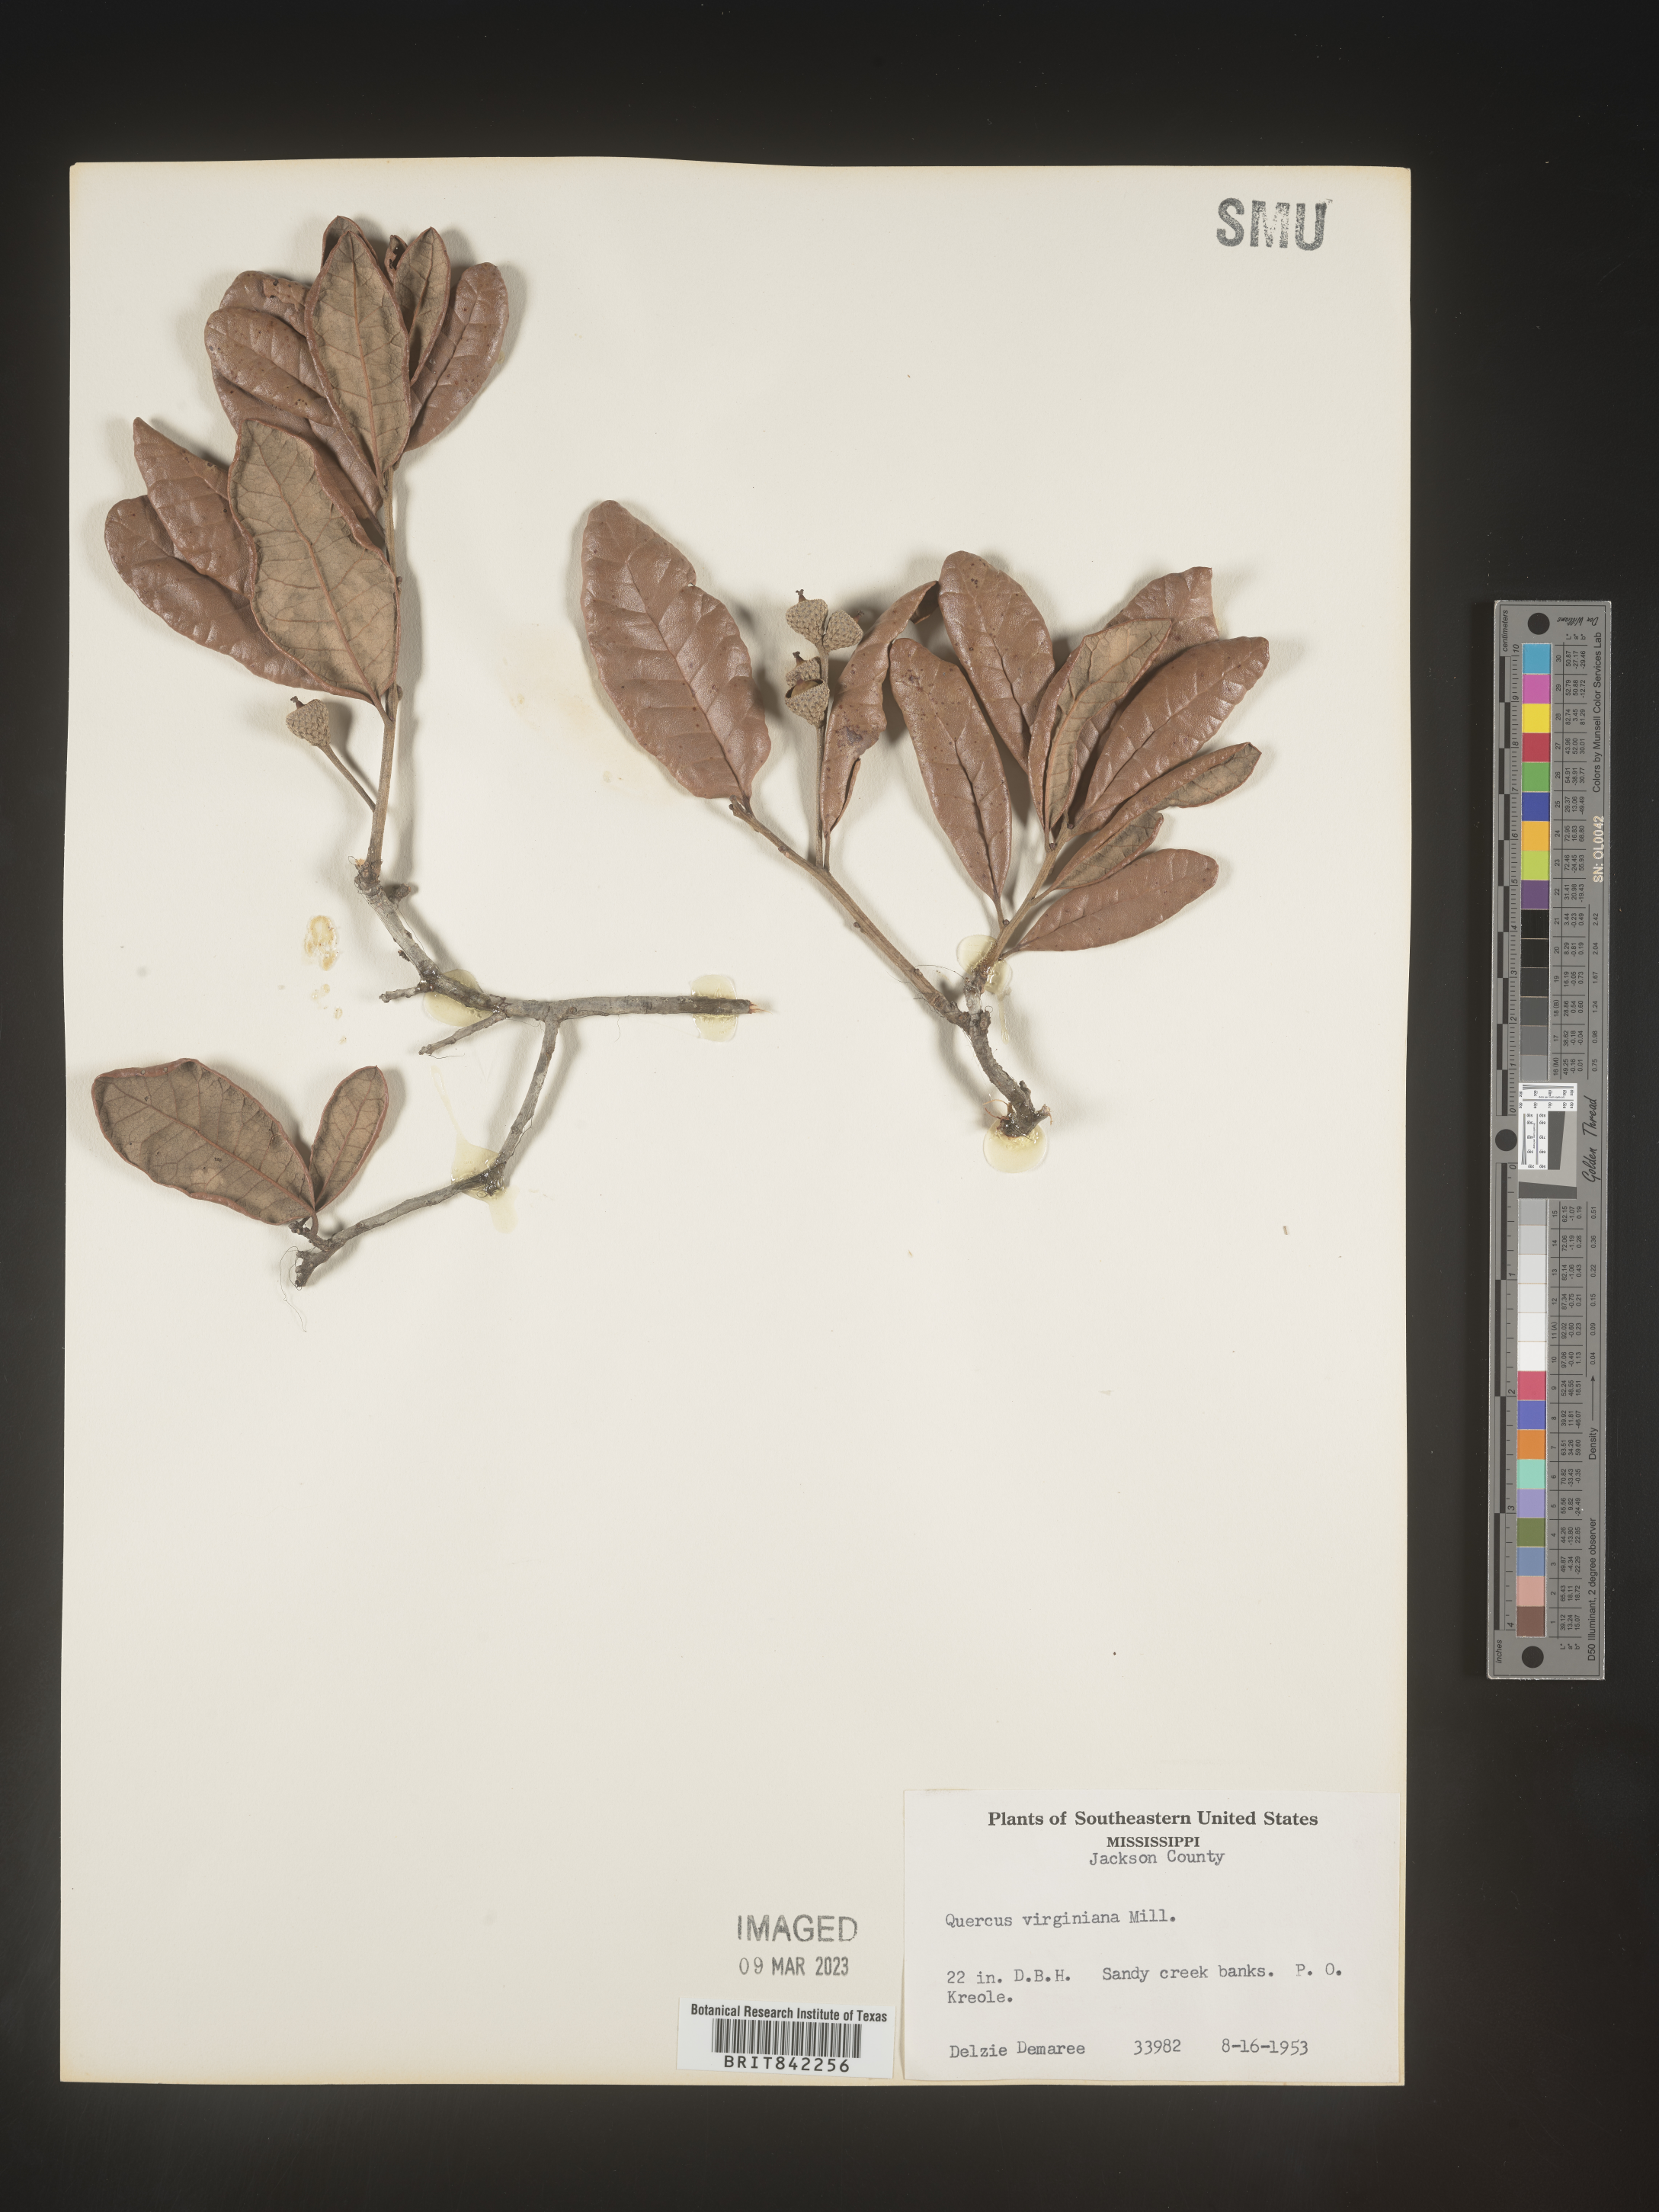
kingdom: Plantae
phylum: Tracheophyta
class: Magnoliopsida
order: Fagales
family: Fagaceae
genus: Quercus
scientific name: Quercus virginiana
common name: Southern live oak
